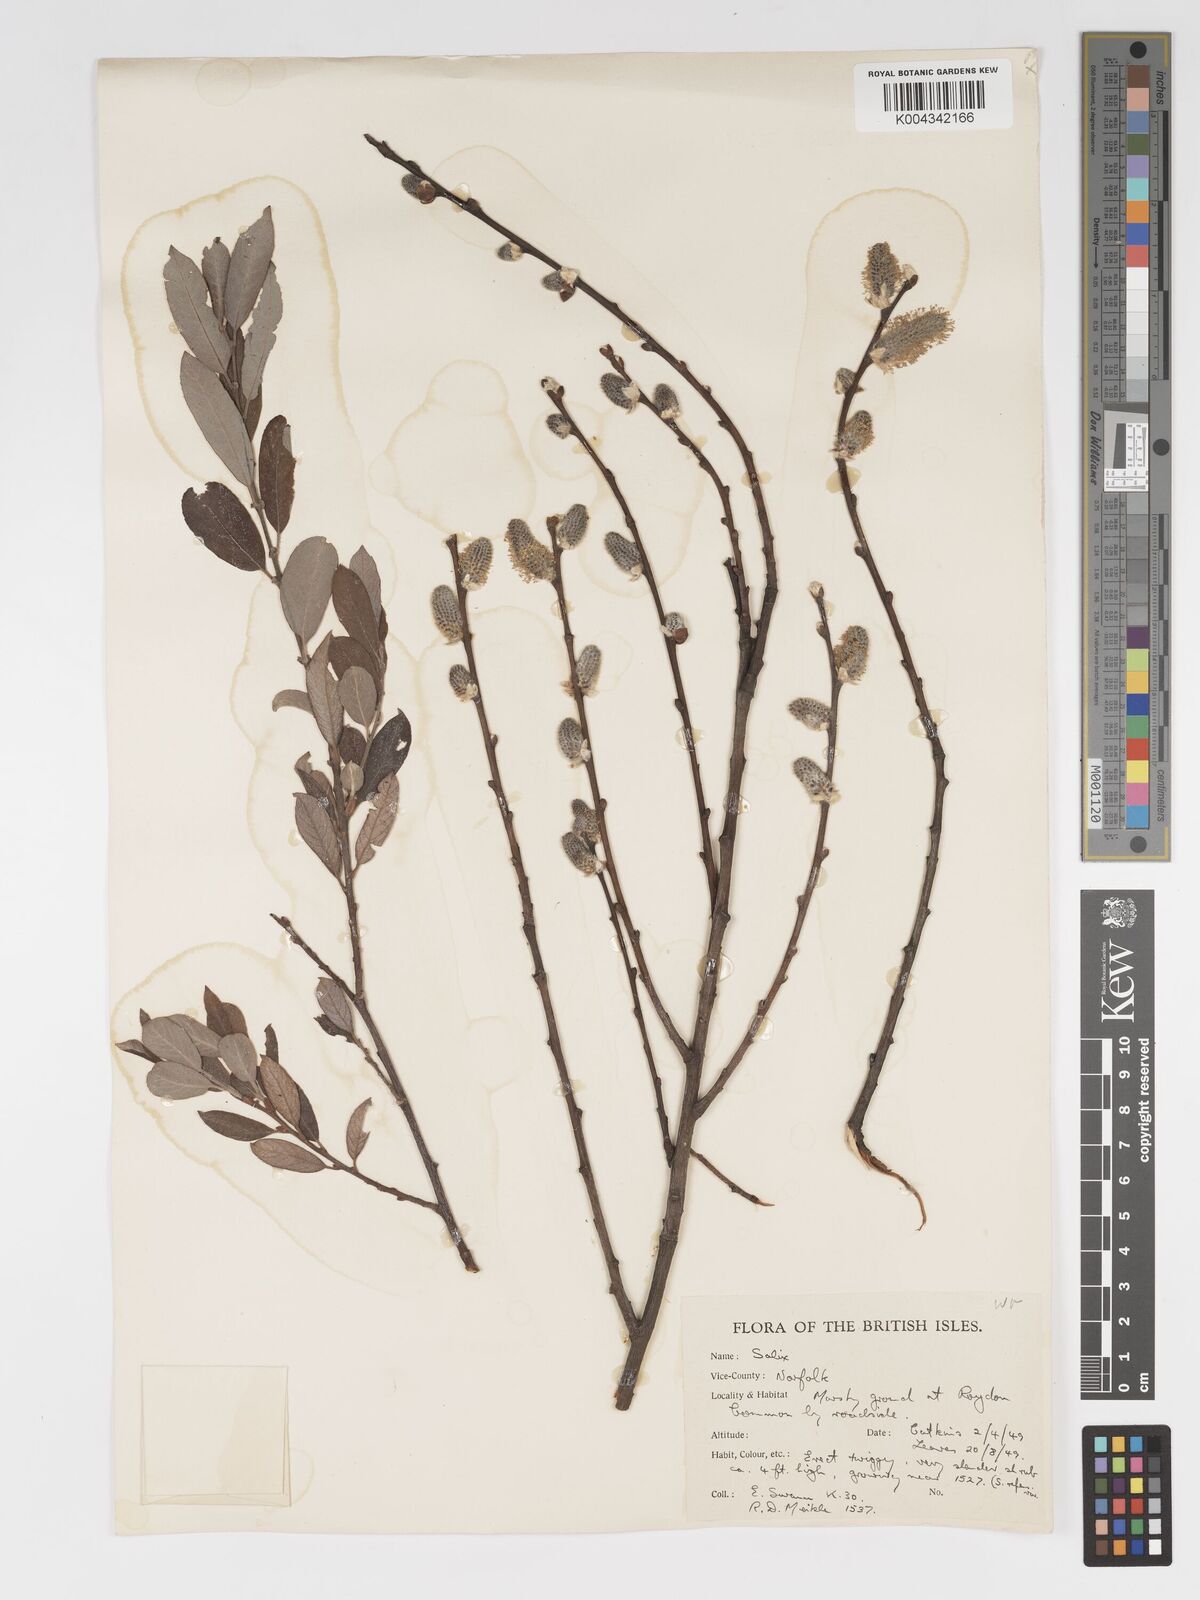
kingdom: Plantae
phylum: Tracheophyta
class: Magnoliopsida
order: Malpighiales
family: Salicaceae
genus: Salix
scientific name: Salix
